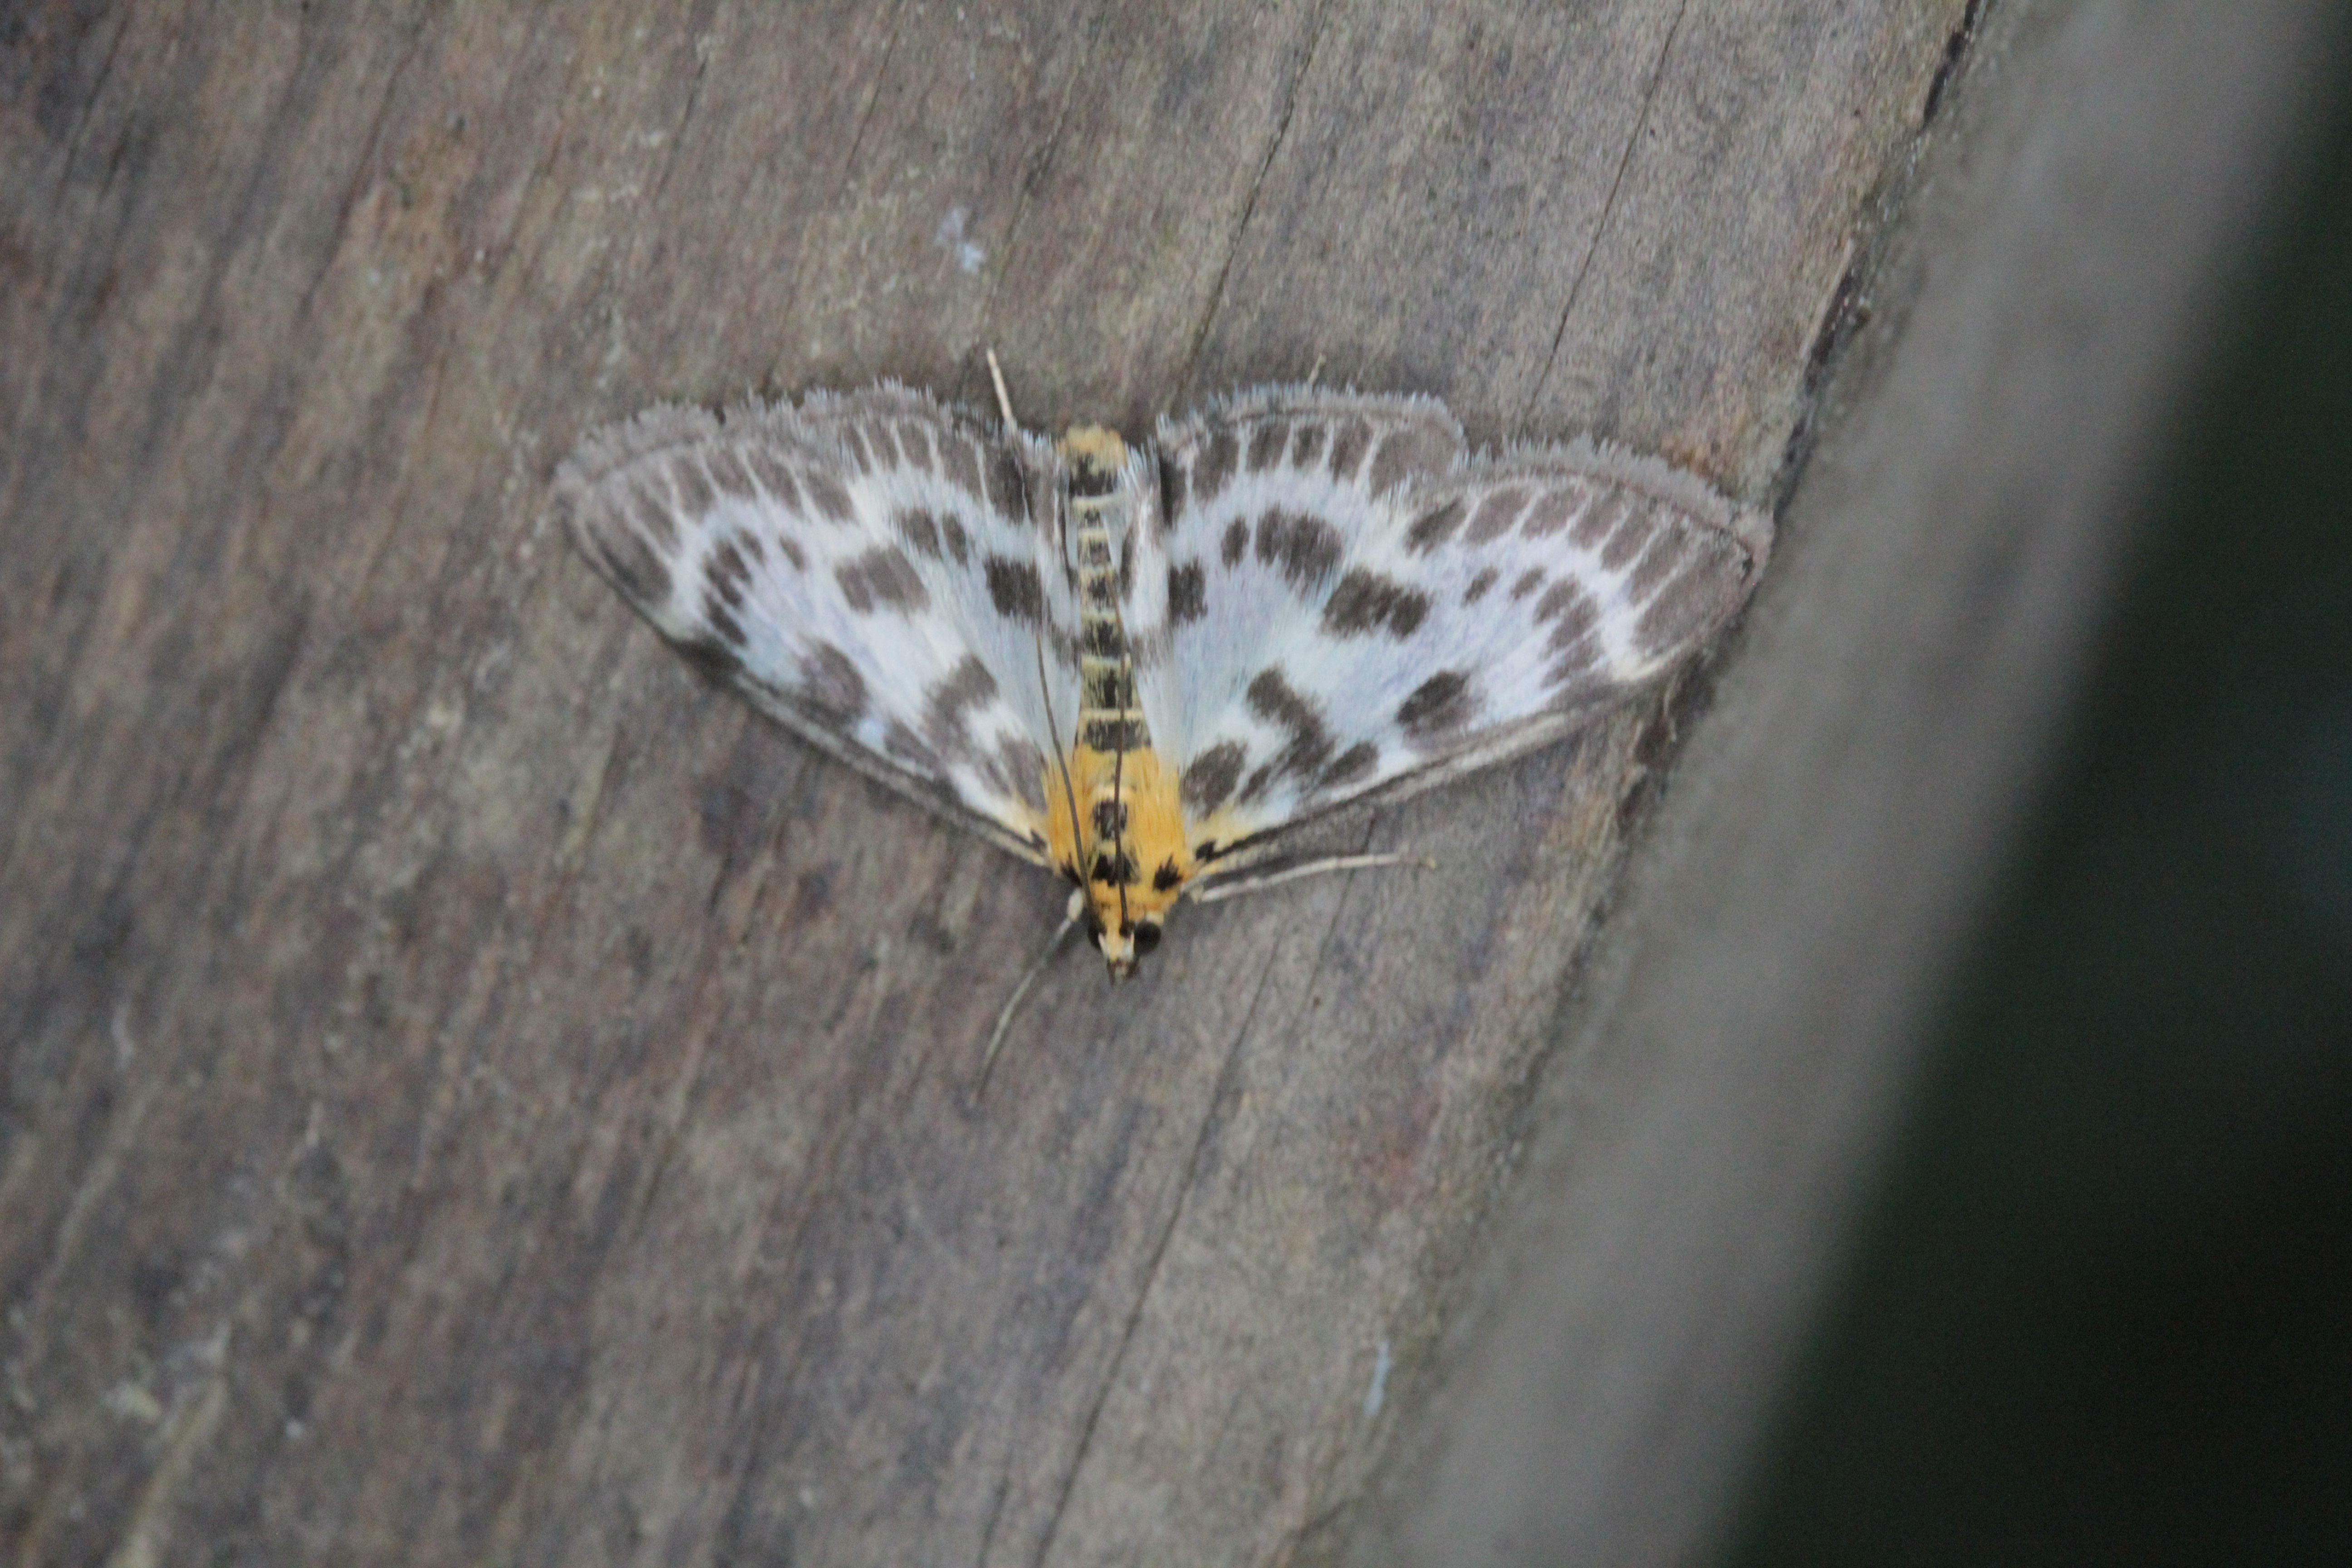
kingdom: Animalia
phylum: Arthropoda
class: Insecta
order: Lepidoptera
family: Crambidae
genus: Anania
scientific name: Anania hortulata
